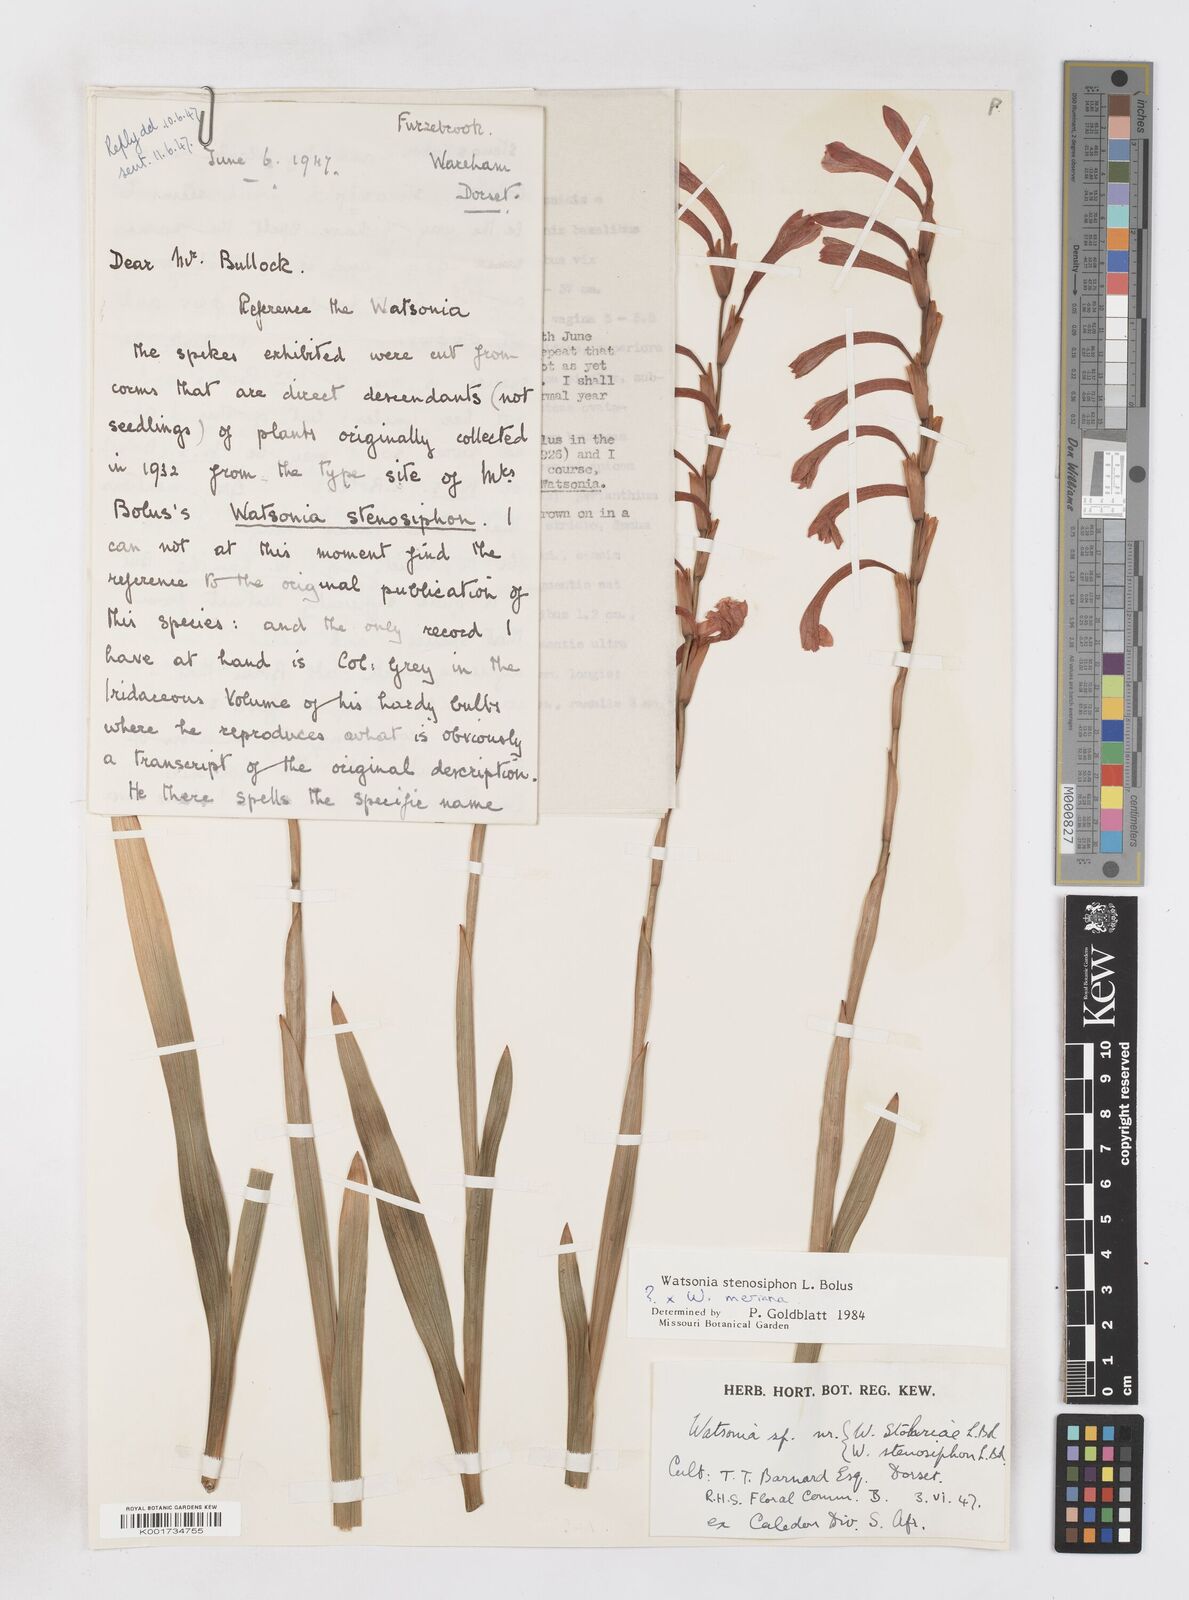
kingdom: Plantae
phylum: Tracheophyta
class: Liliopsida
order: Asparagales
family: Iridaceae
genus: Watsonia
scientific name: Watsonia stenosiphon
